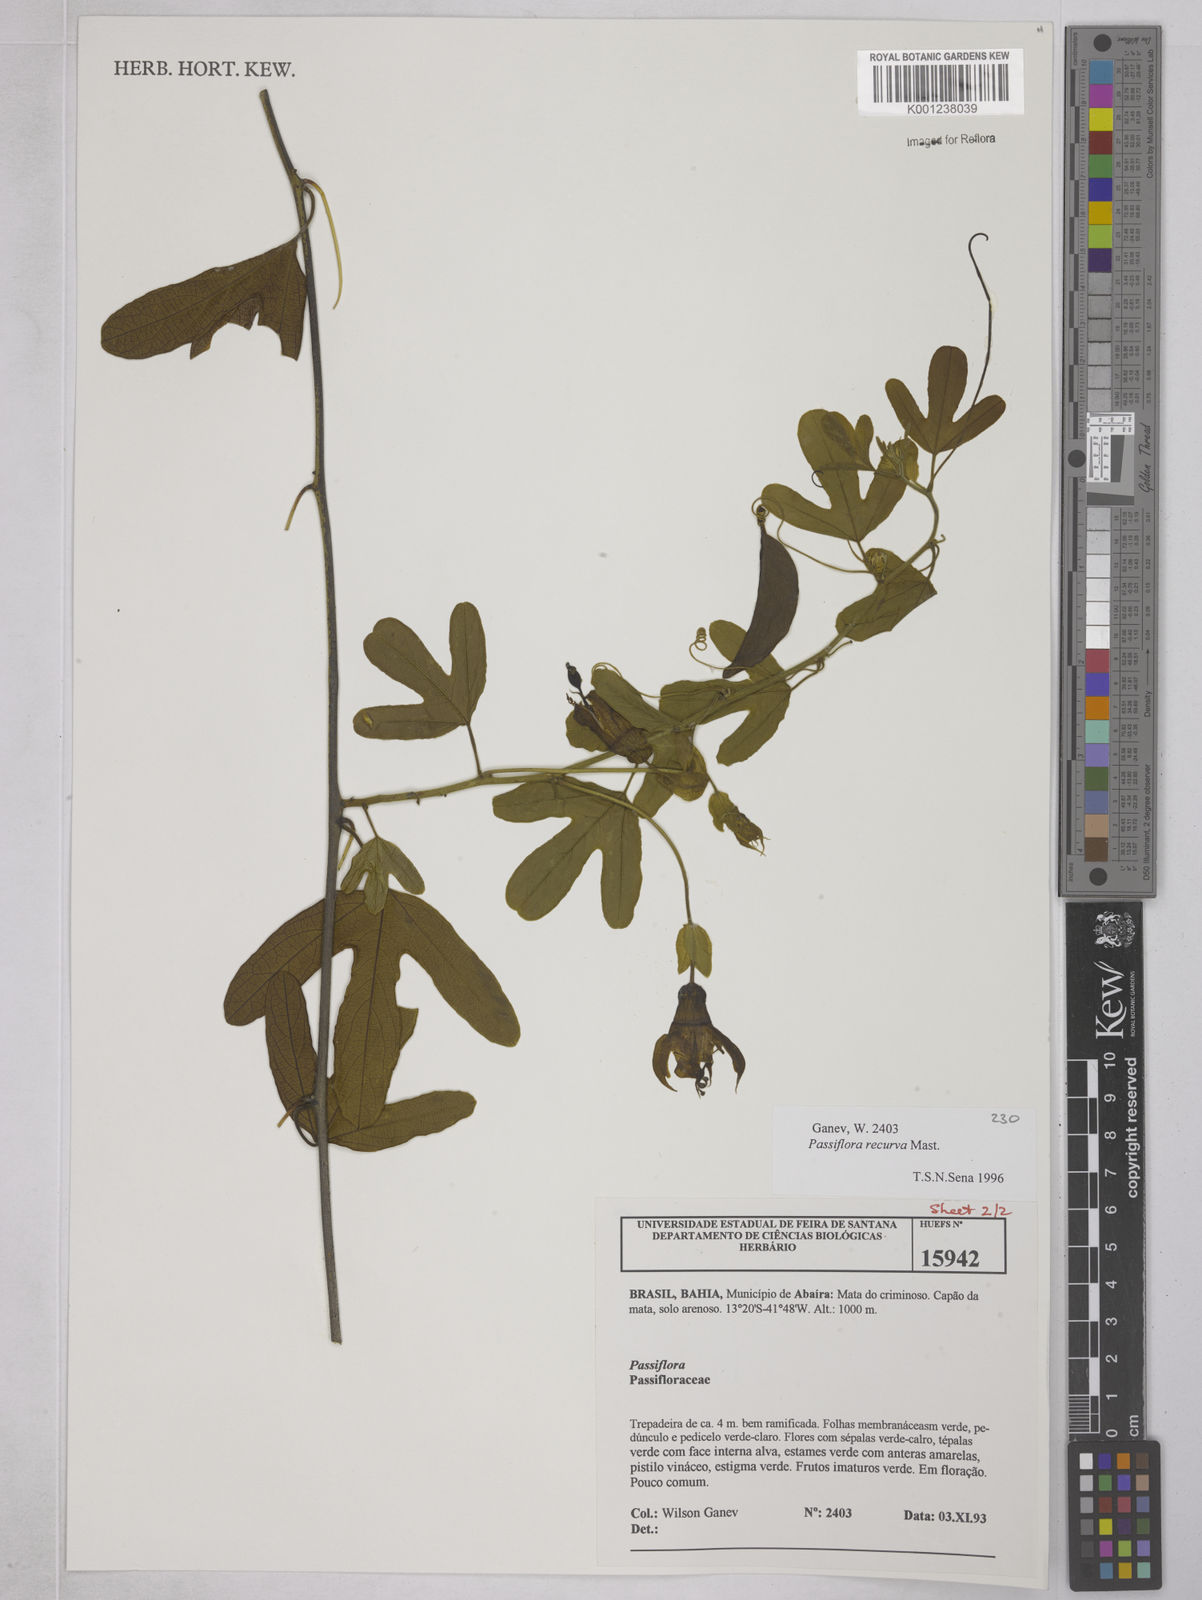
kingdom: Plantae
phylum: Tracheophyta
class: Magnoliopsida
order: Malpighiales
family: Passifloraceae
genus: Passiflora
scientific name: Passiflora recurva
